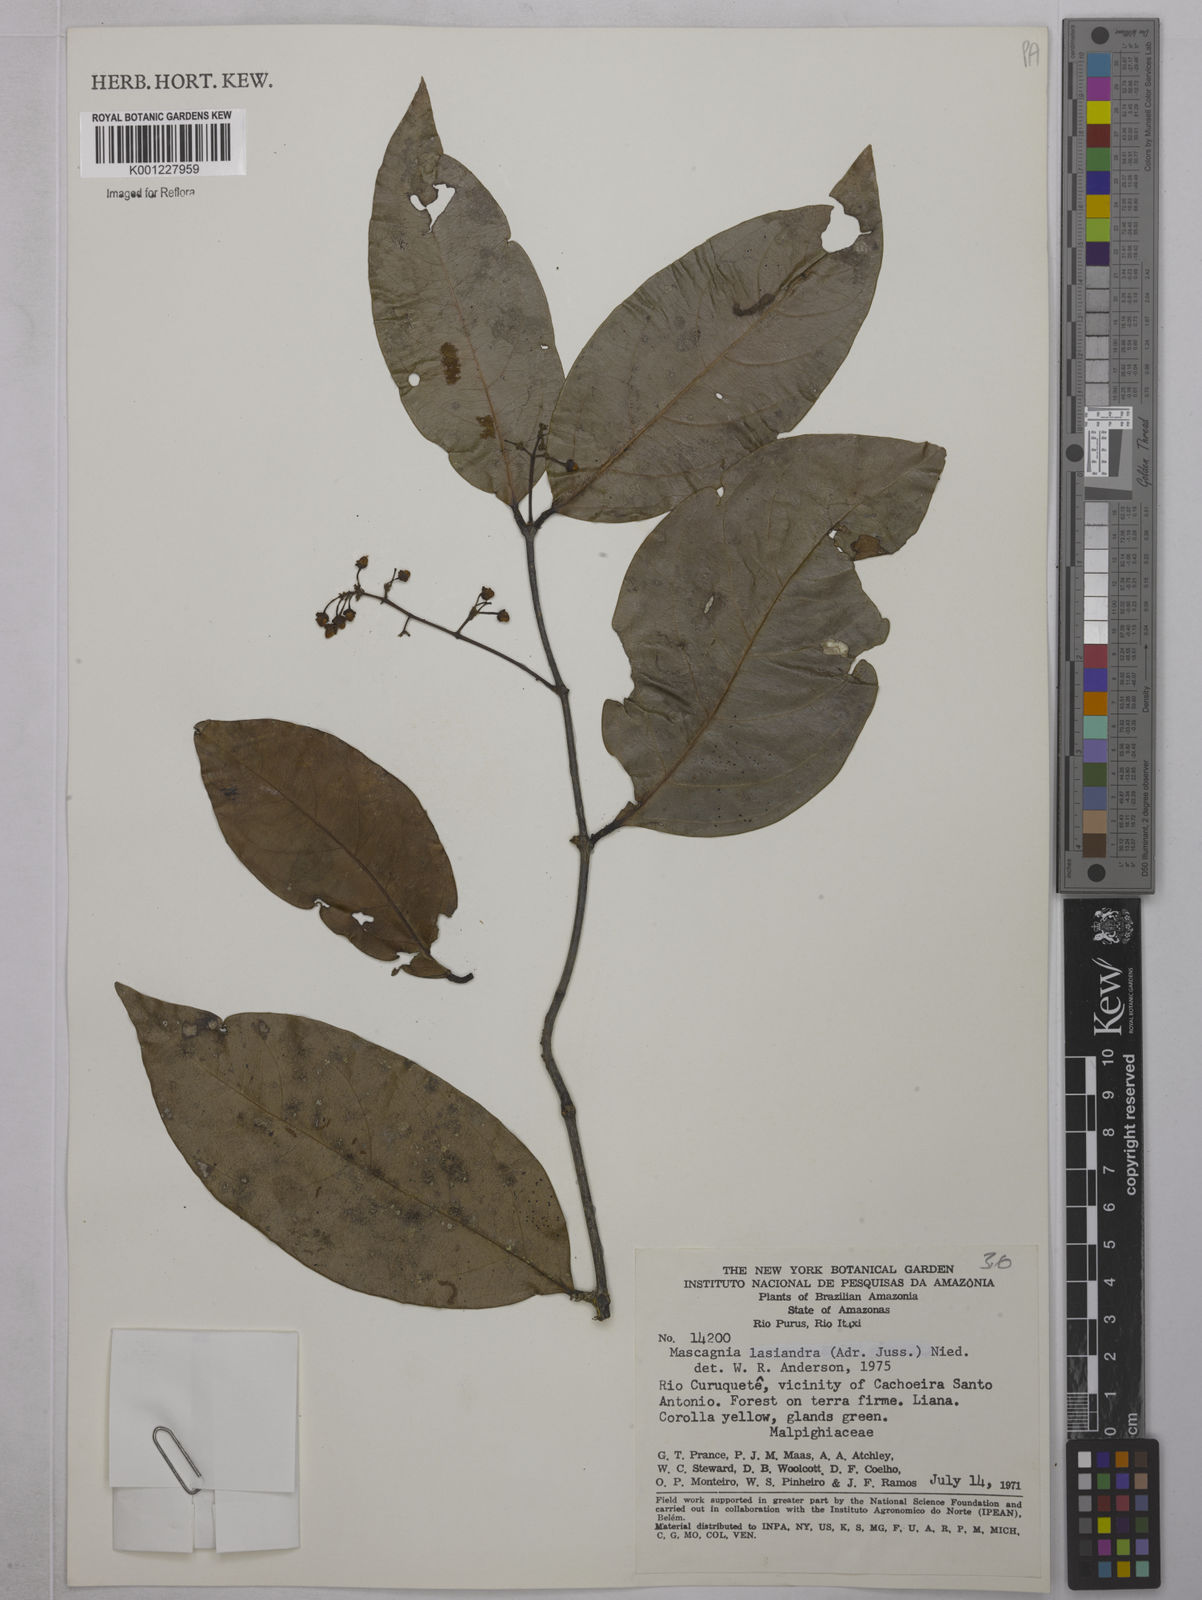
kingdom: Plantae
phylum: Tracheophyta
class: Magnoliopsida
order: Malpighiales
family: Malpighiaceae
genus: Niedenzuella
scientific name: Niedenzuella lasiandra
